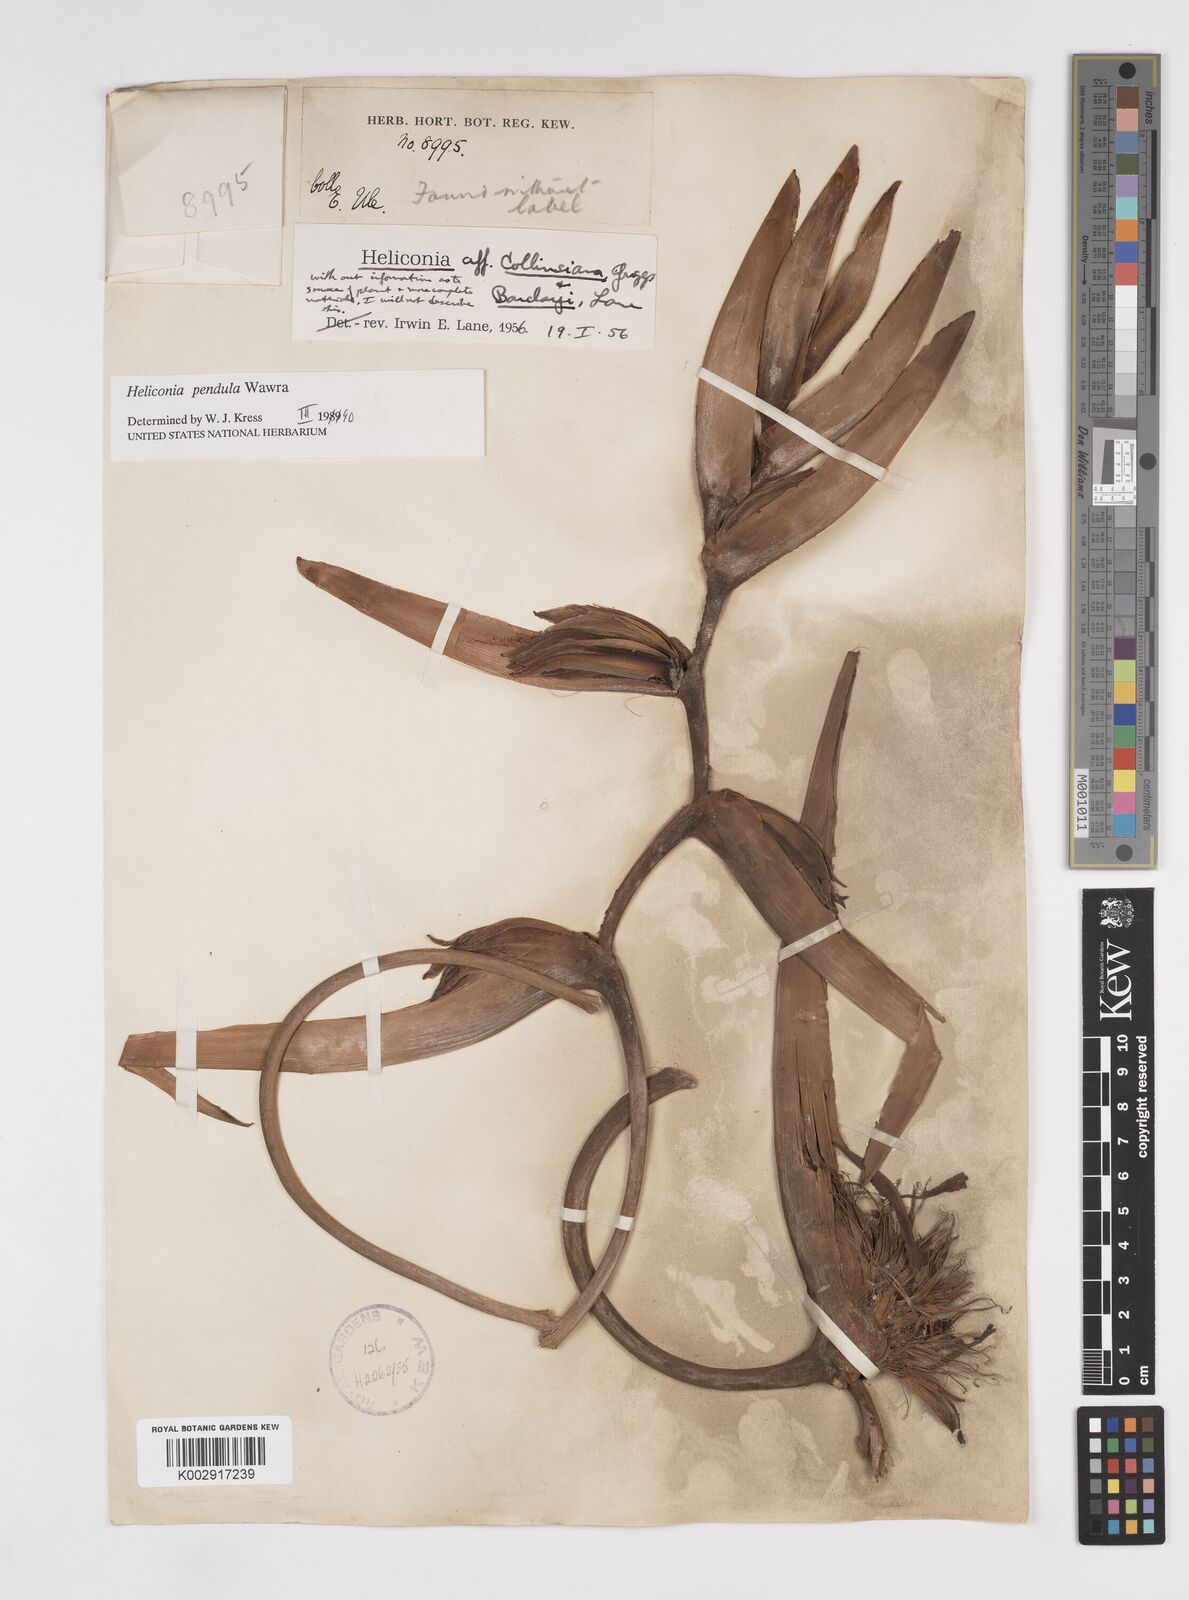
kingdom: Plantae
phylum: Tracheophyta
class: Liliopsida
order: Zingiberales
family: Heliconiaceae
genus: Heliconia
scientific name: Heliconia pendula
